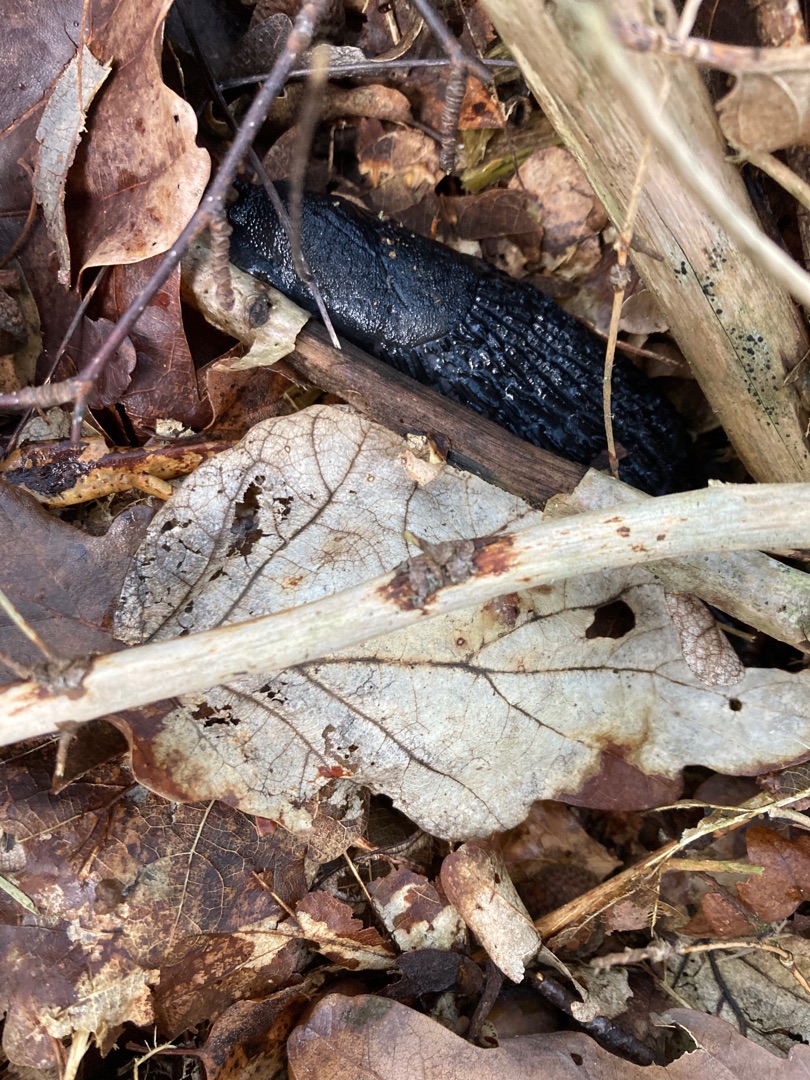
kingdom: Animalia
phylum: Mollusca
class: Gastropoda
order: Stylommatophora
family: Arionidae
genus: Arion
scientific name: Arion ater
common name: Sort skovsnegl
